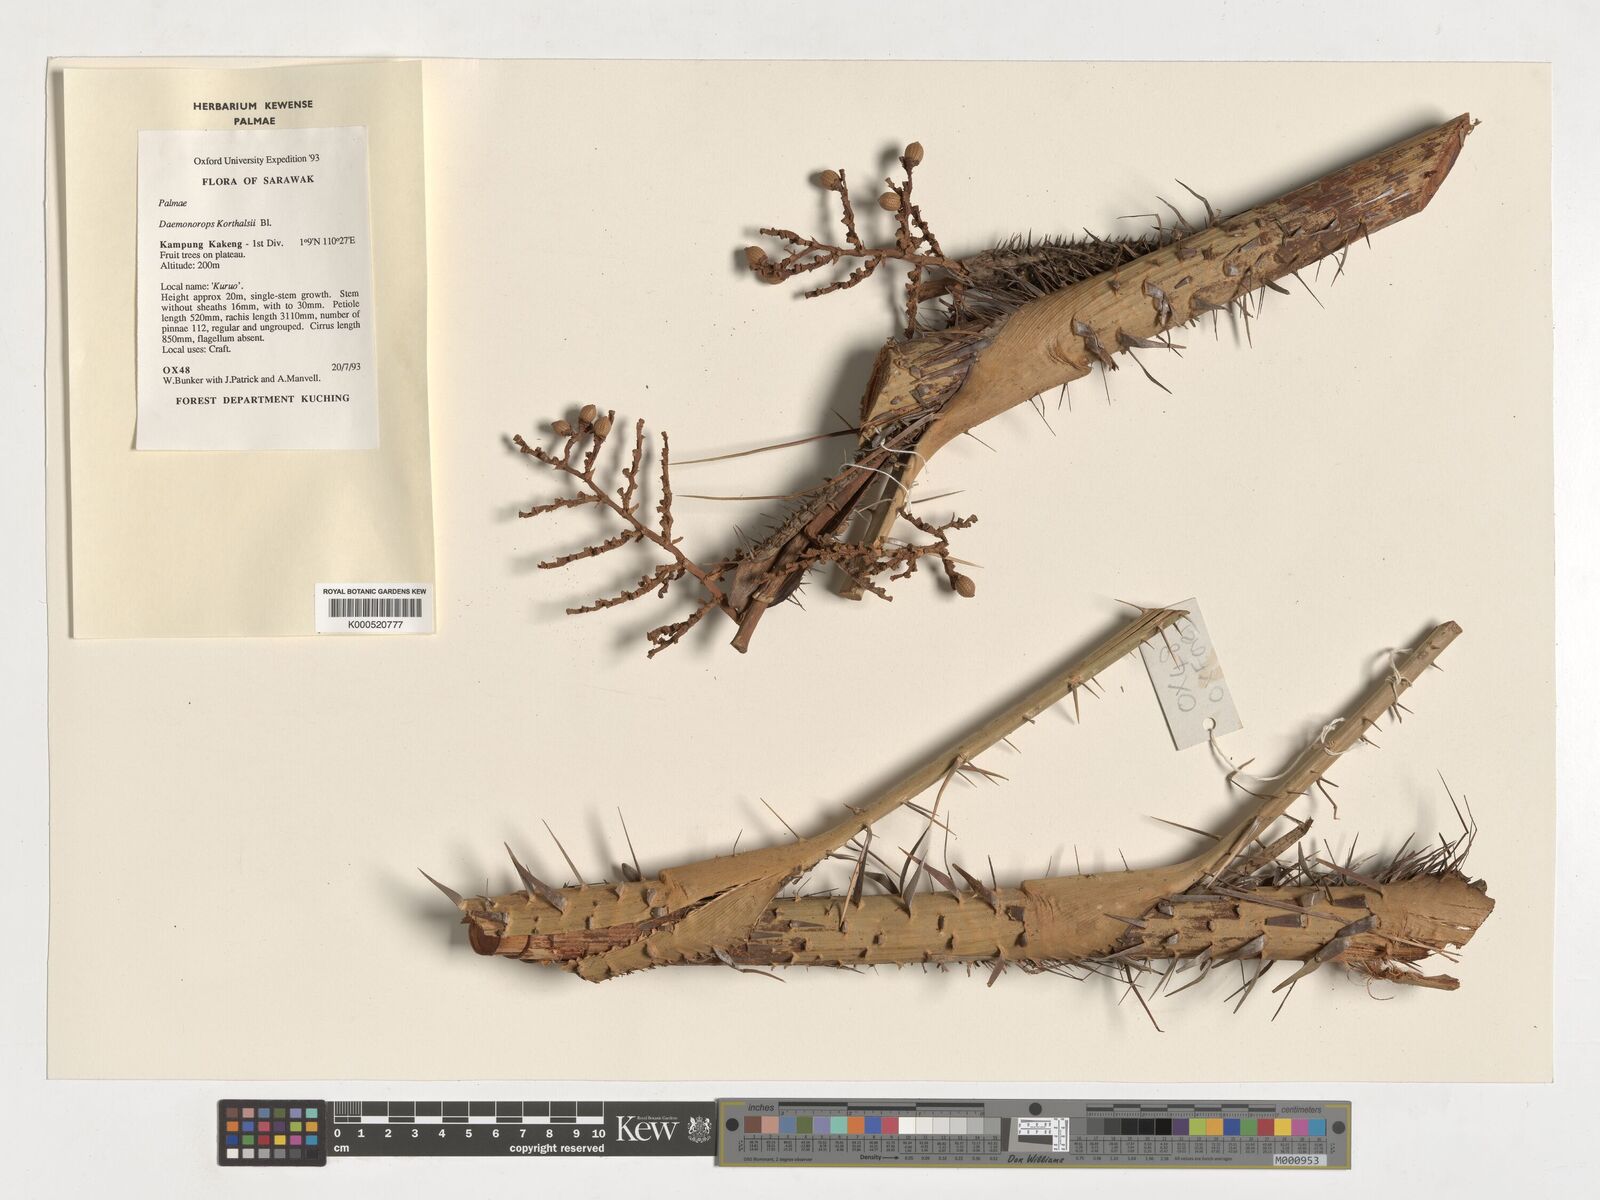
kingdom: Plantae
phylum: Tracheophyta
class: Liliopsida
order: Arecales
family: Arecaceae
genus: Calamus
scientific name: Calamus hirsutus
